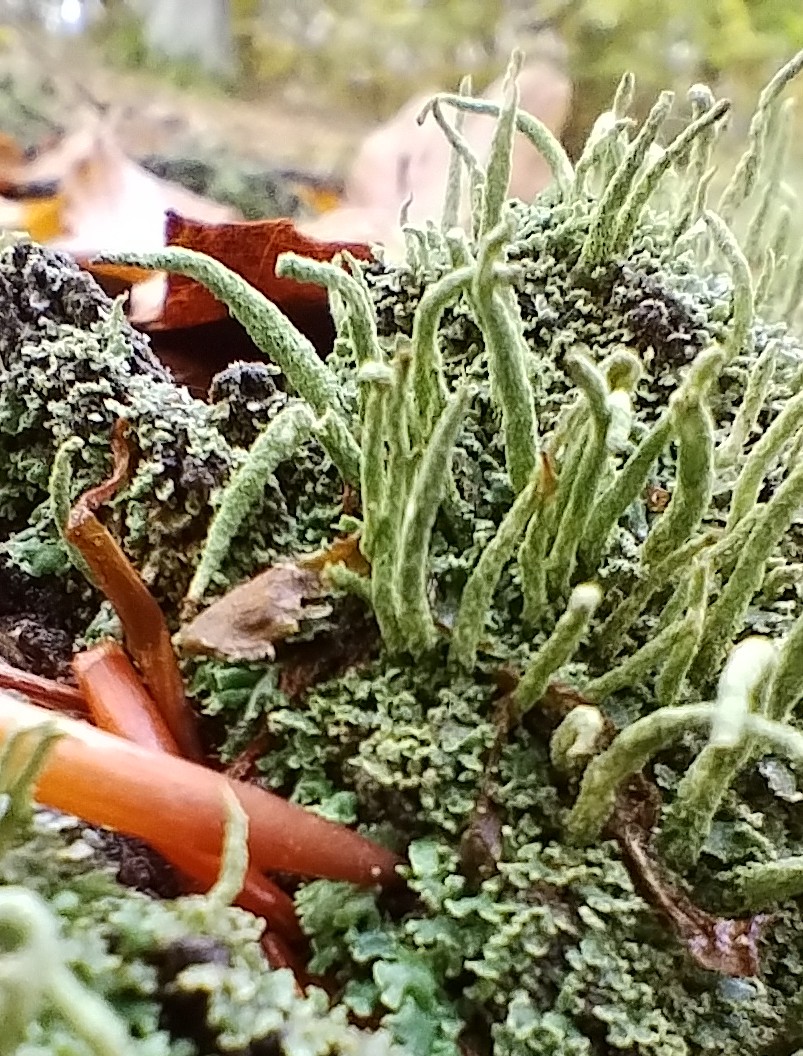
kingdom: Fungi
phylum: Ascomycota
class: Lecanoromycetes
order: Lecanorales
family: Cladoniaceae
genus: Cladonia
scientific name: Cladonia coniocraea
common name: træfods-bægerlav
